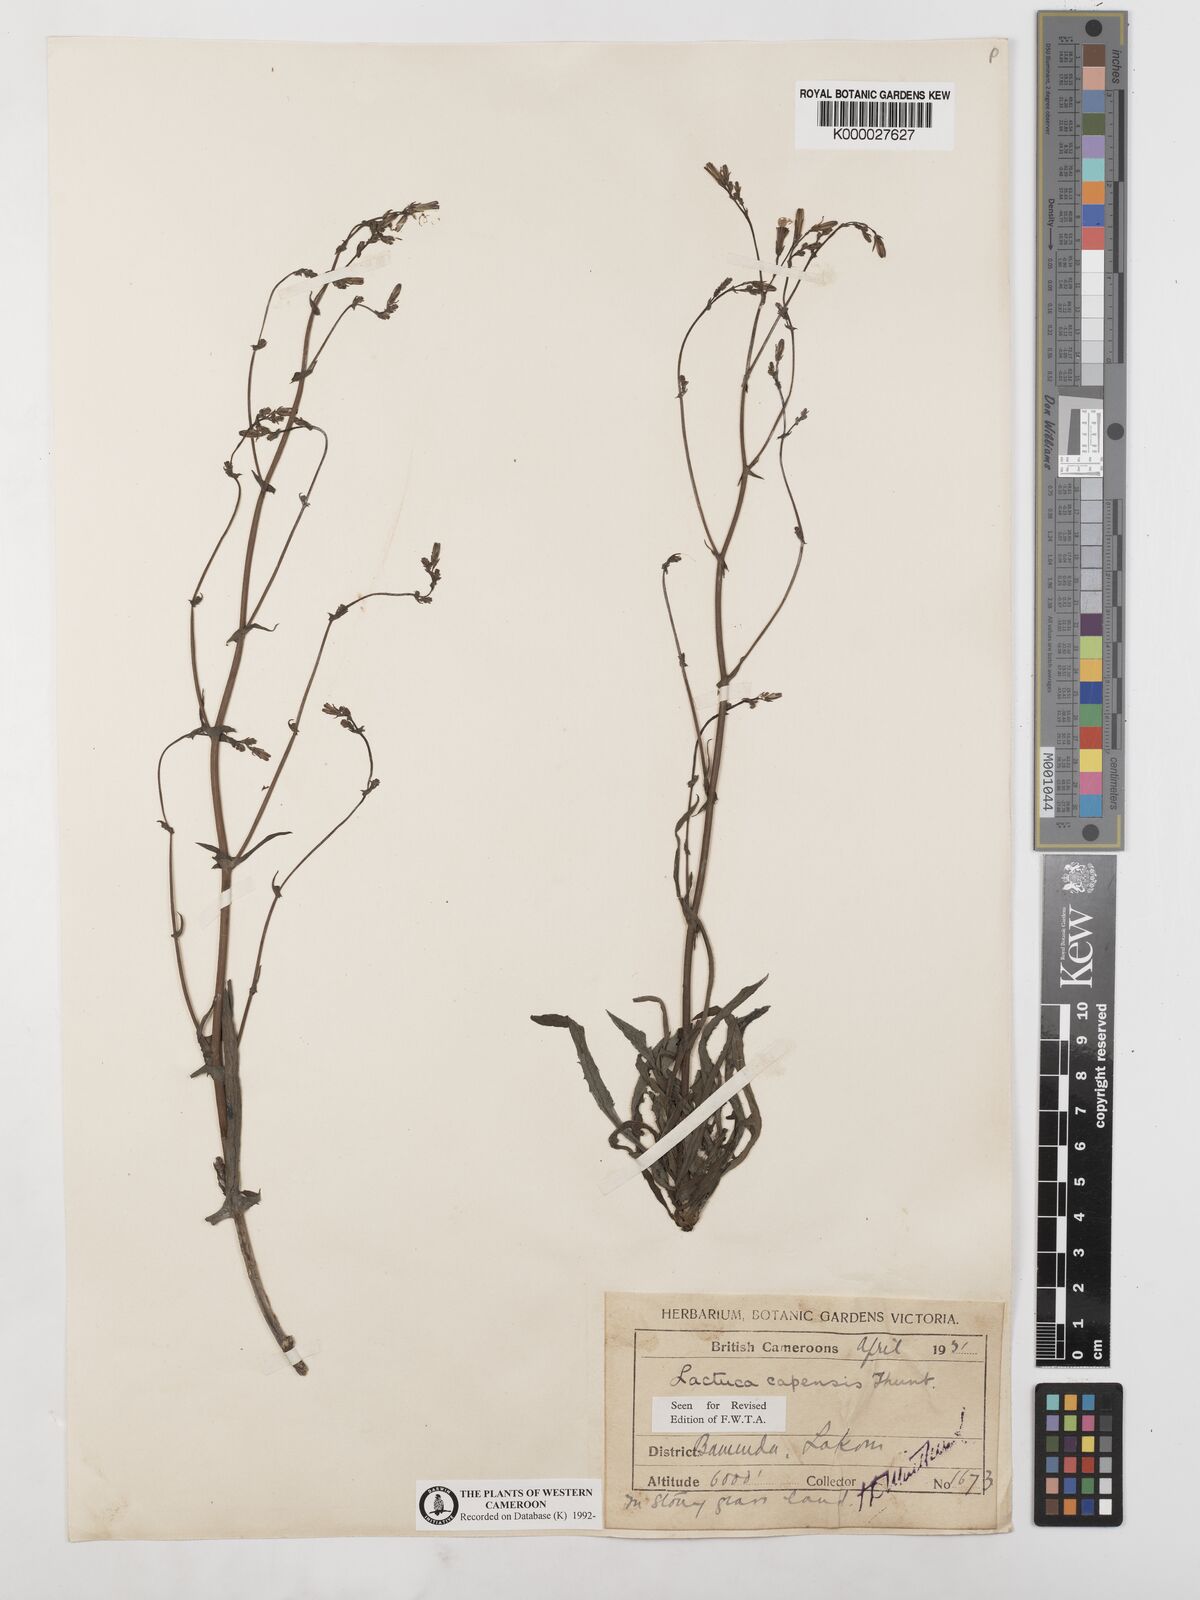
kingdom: Plantae
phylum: Tracheophyta
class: Magnoliopsida
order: Asterales
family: Asteraceae
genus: Lactuca
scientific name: Lactuca inermis
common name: Wild lettuce
